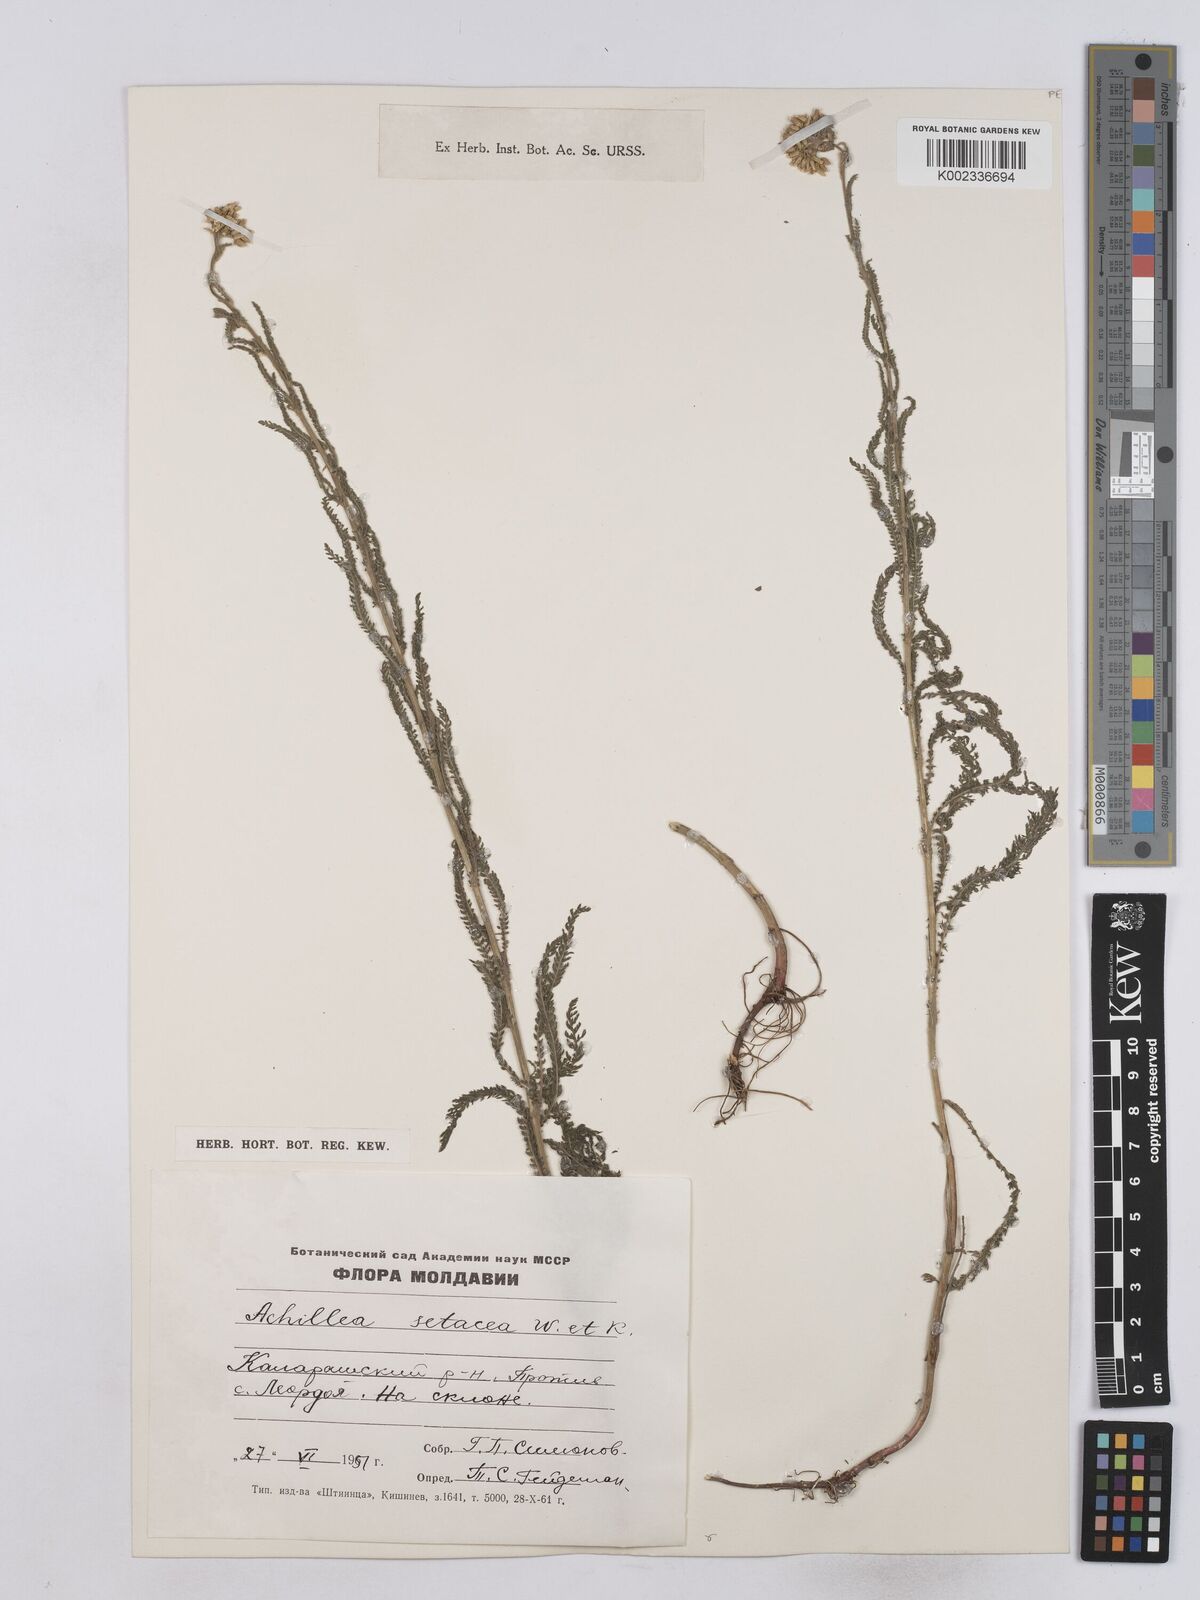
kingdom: Plantae
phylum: Tracheophyta
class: Magnoliopsida
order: Asterales
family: Asteraceae
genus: Achillea
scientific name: Achillea setacea
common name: Bristly yarrow
